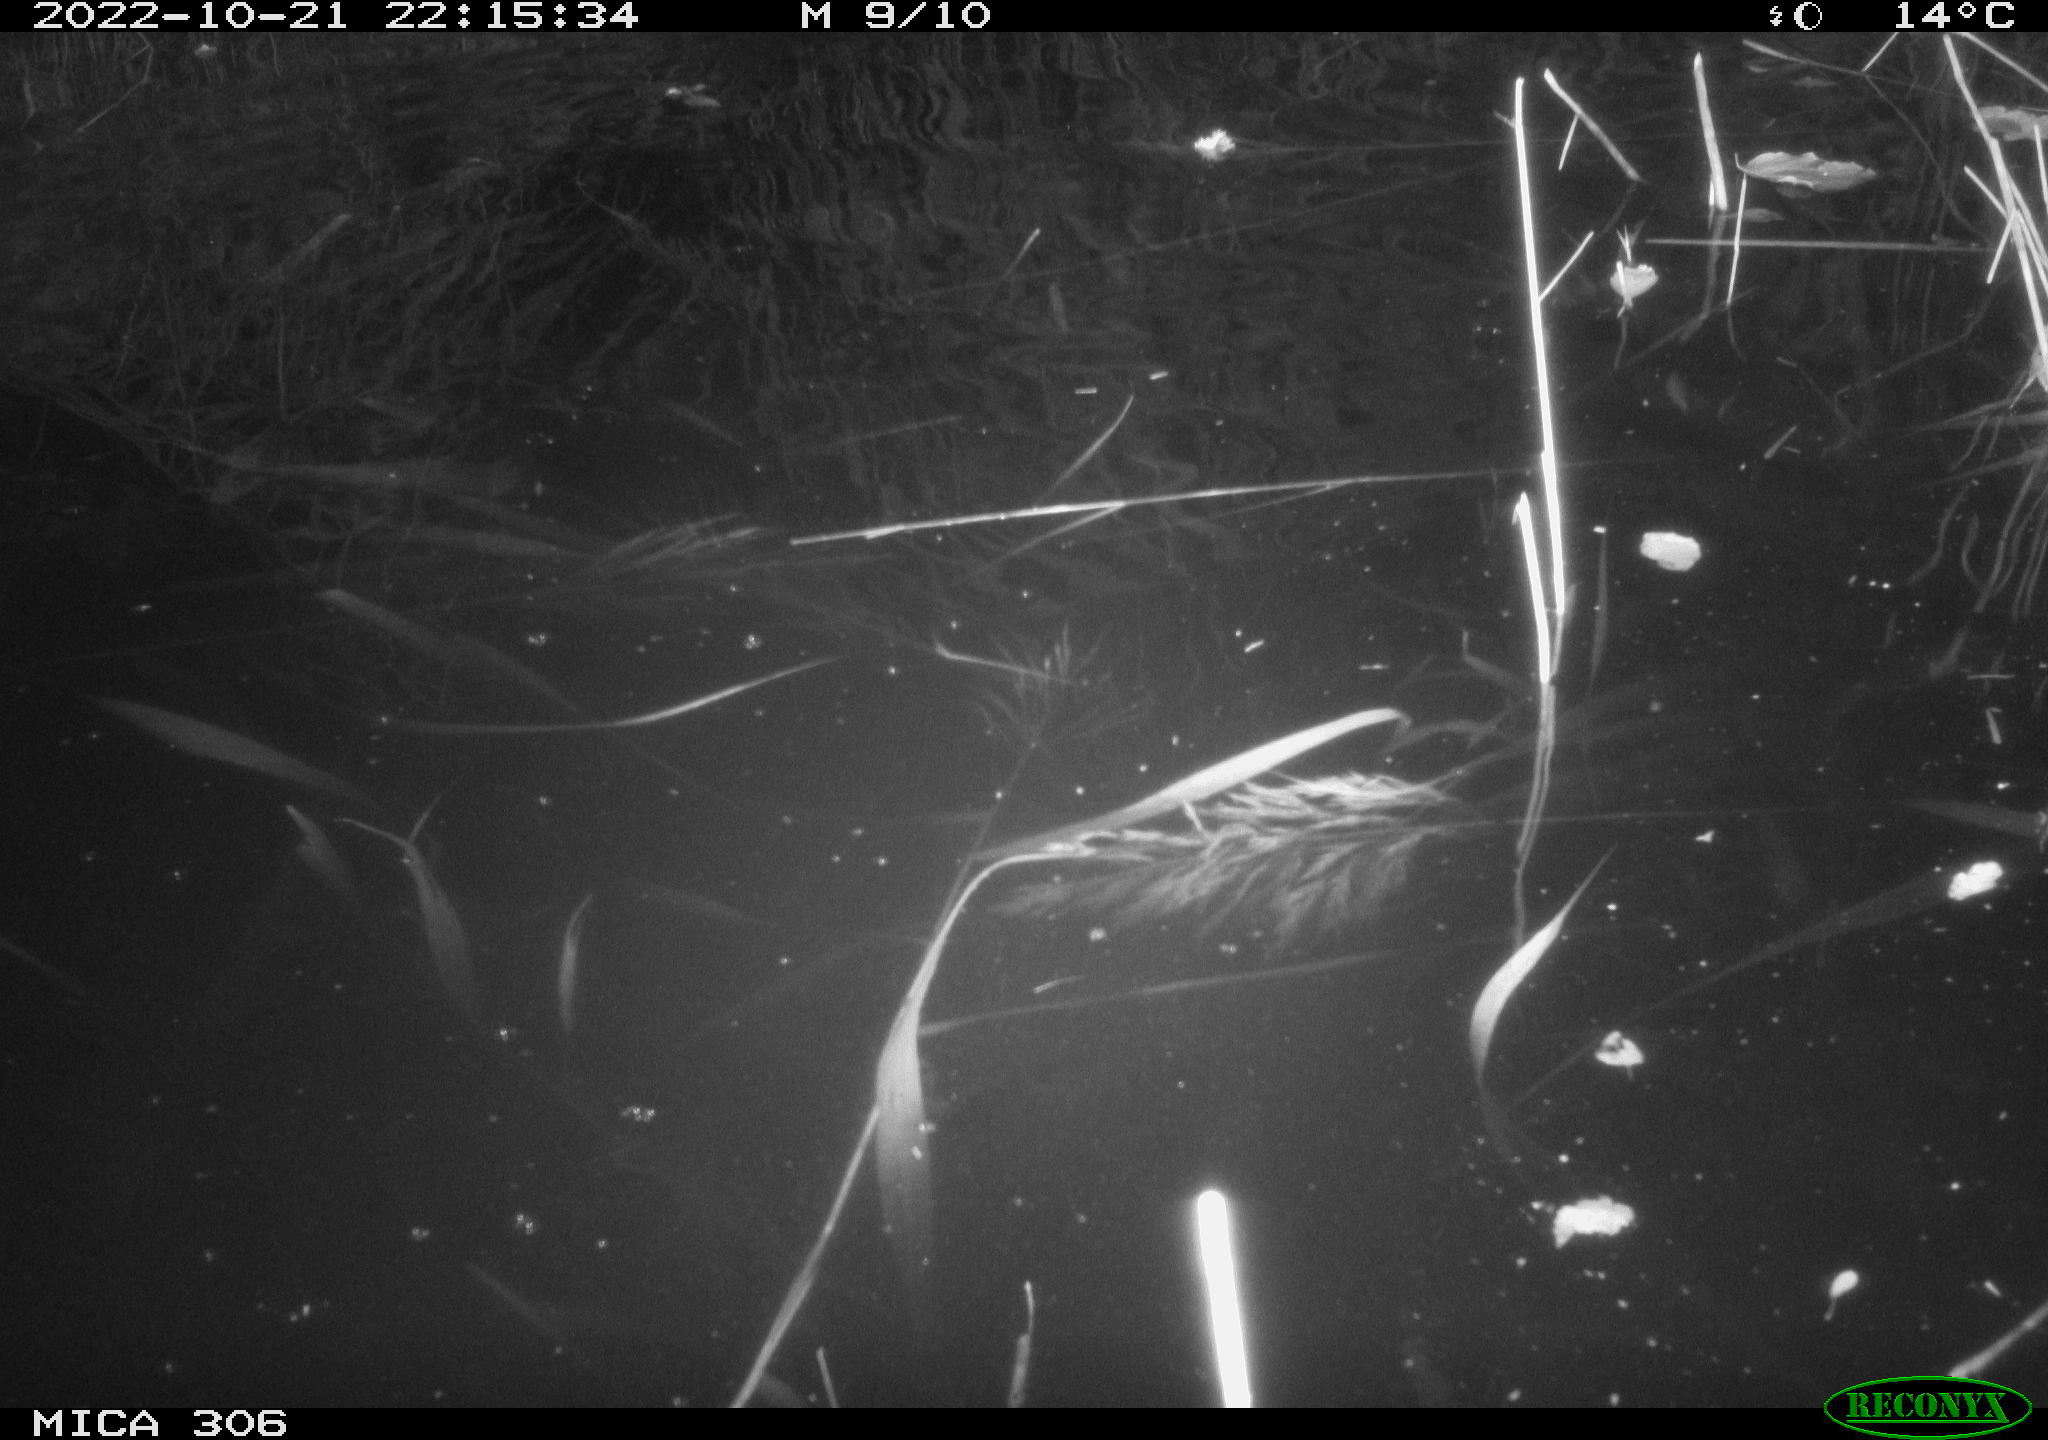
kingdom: Animalia
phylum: Chordata
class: Mammalia
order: Rodentia
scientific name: Rodentia
